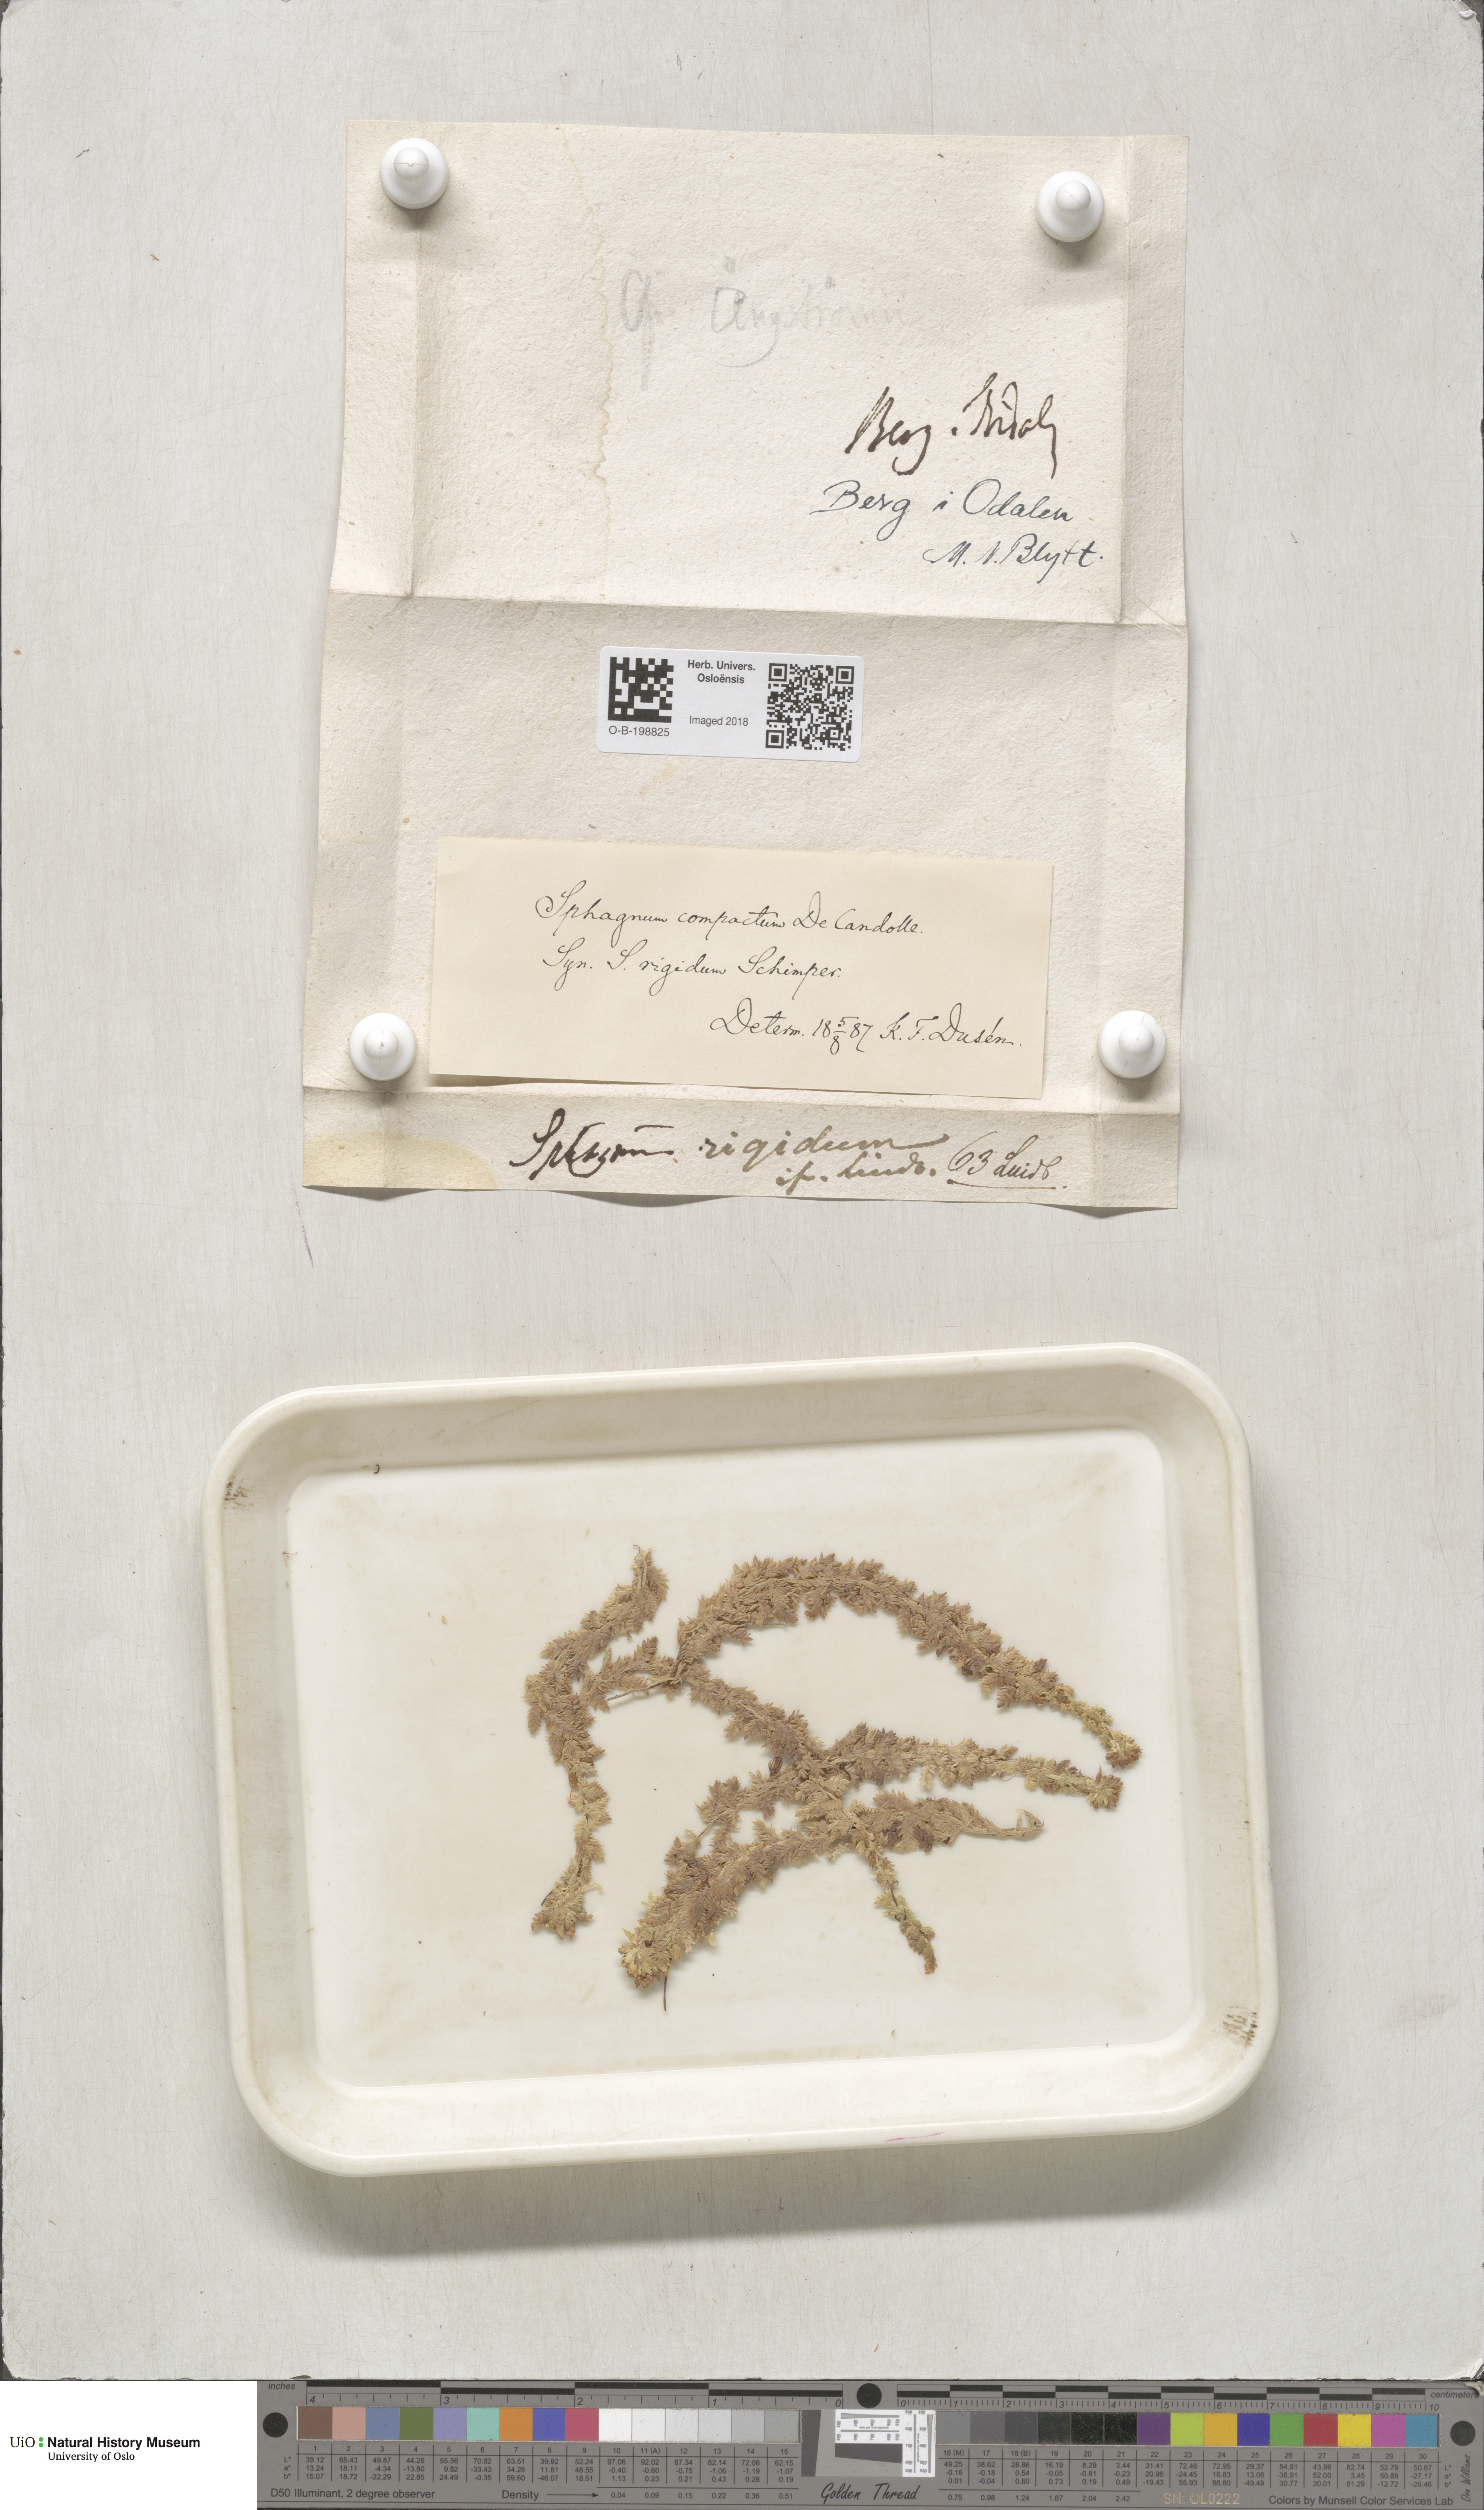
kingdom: Plantae
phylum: Bryophyta
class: Sphagnopsida
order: Sphagnales
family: Sphagnaceae
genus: Sphagnum
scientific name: Sphagnum compactum
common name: Compact peat moss
